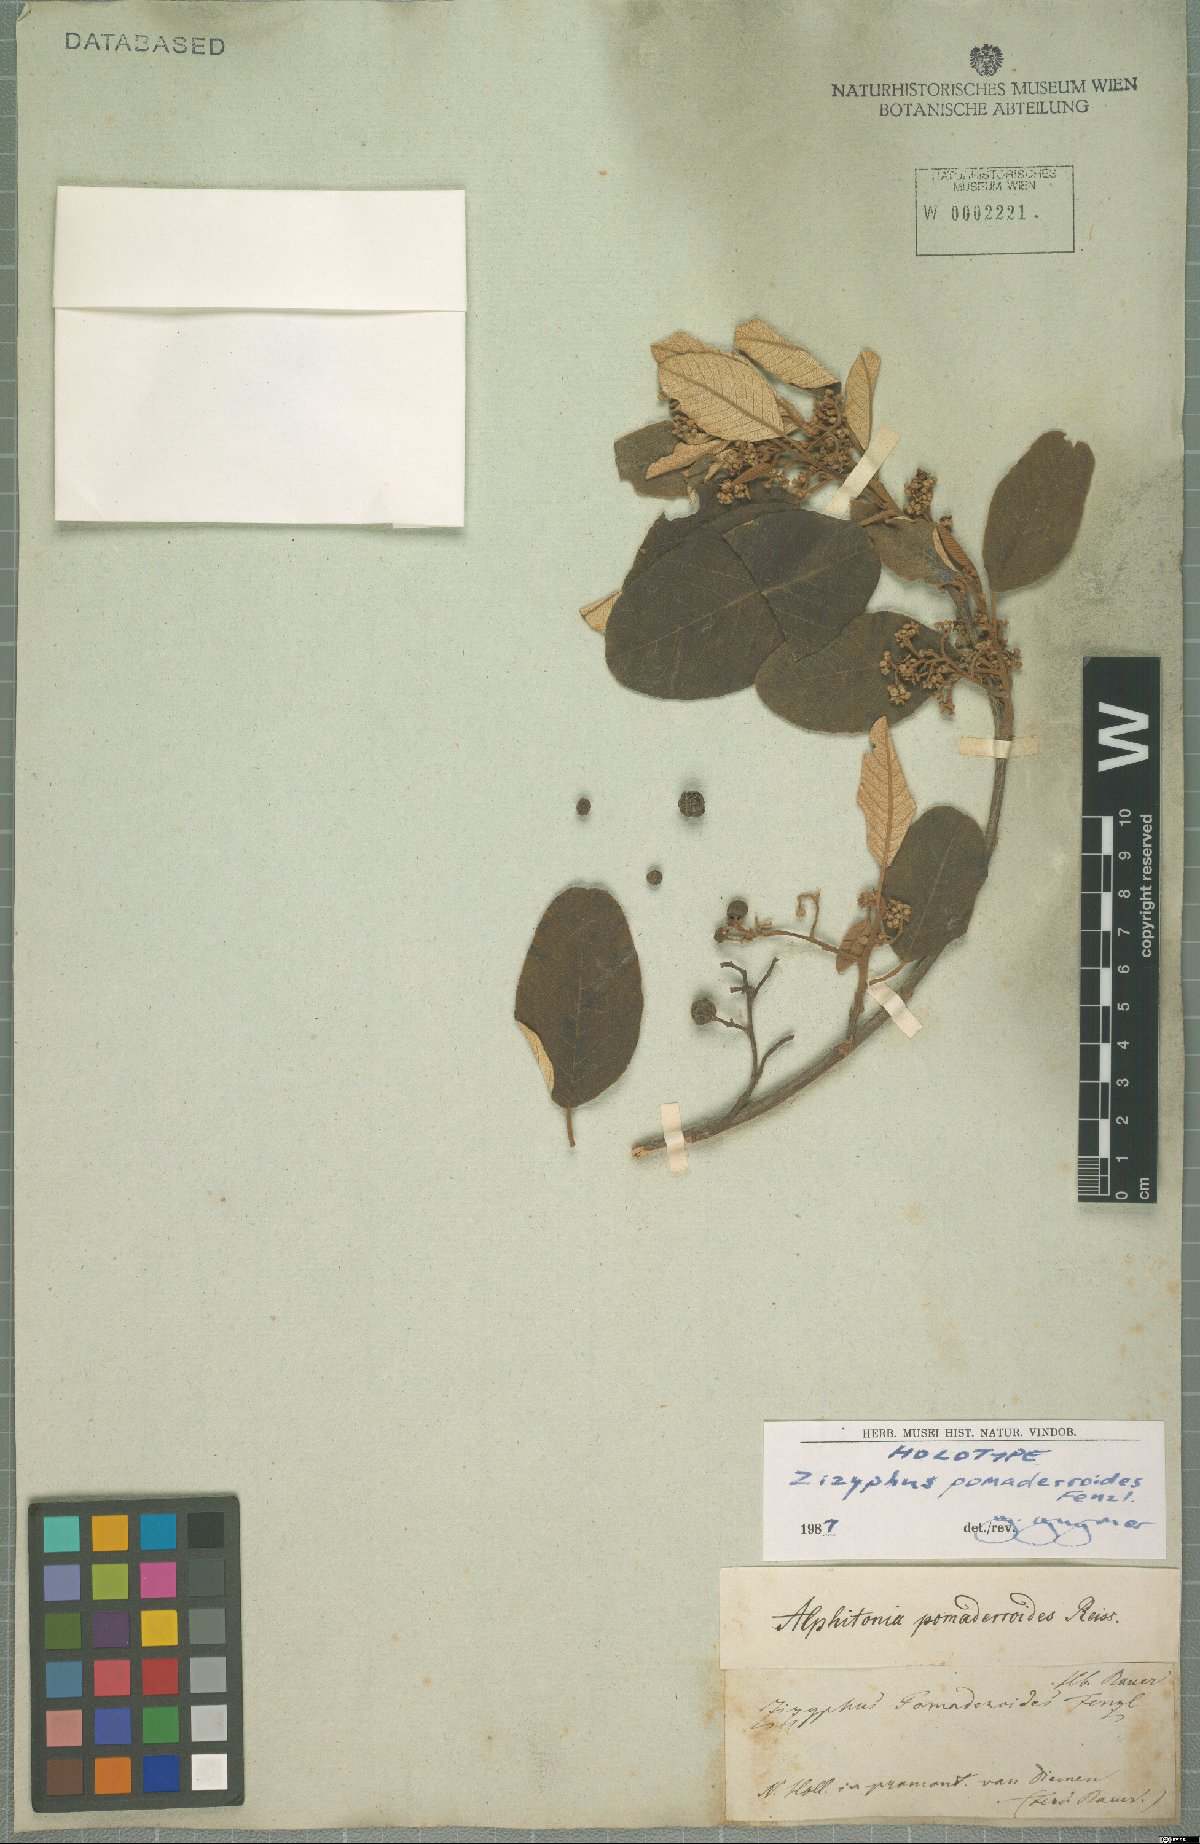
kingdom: Plantae
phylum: Tracheophyta
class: Magnoliopsida
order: Rosales
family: Rhamnaceae
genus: Alphitonia
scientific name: Alphitonia pomaderroides
